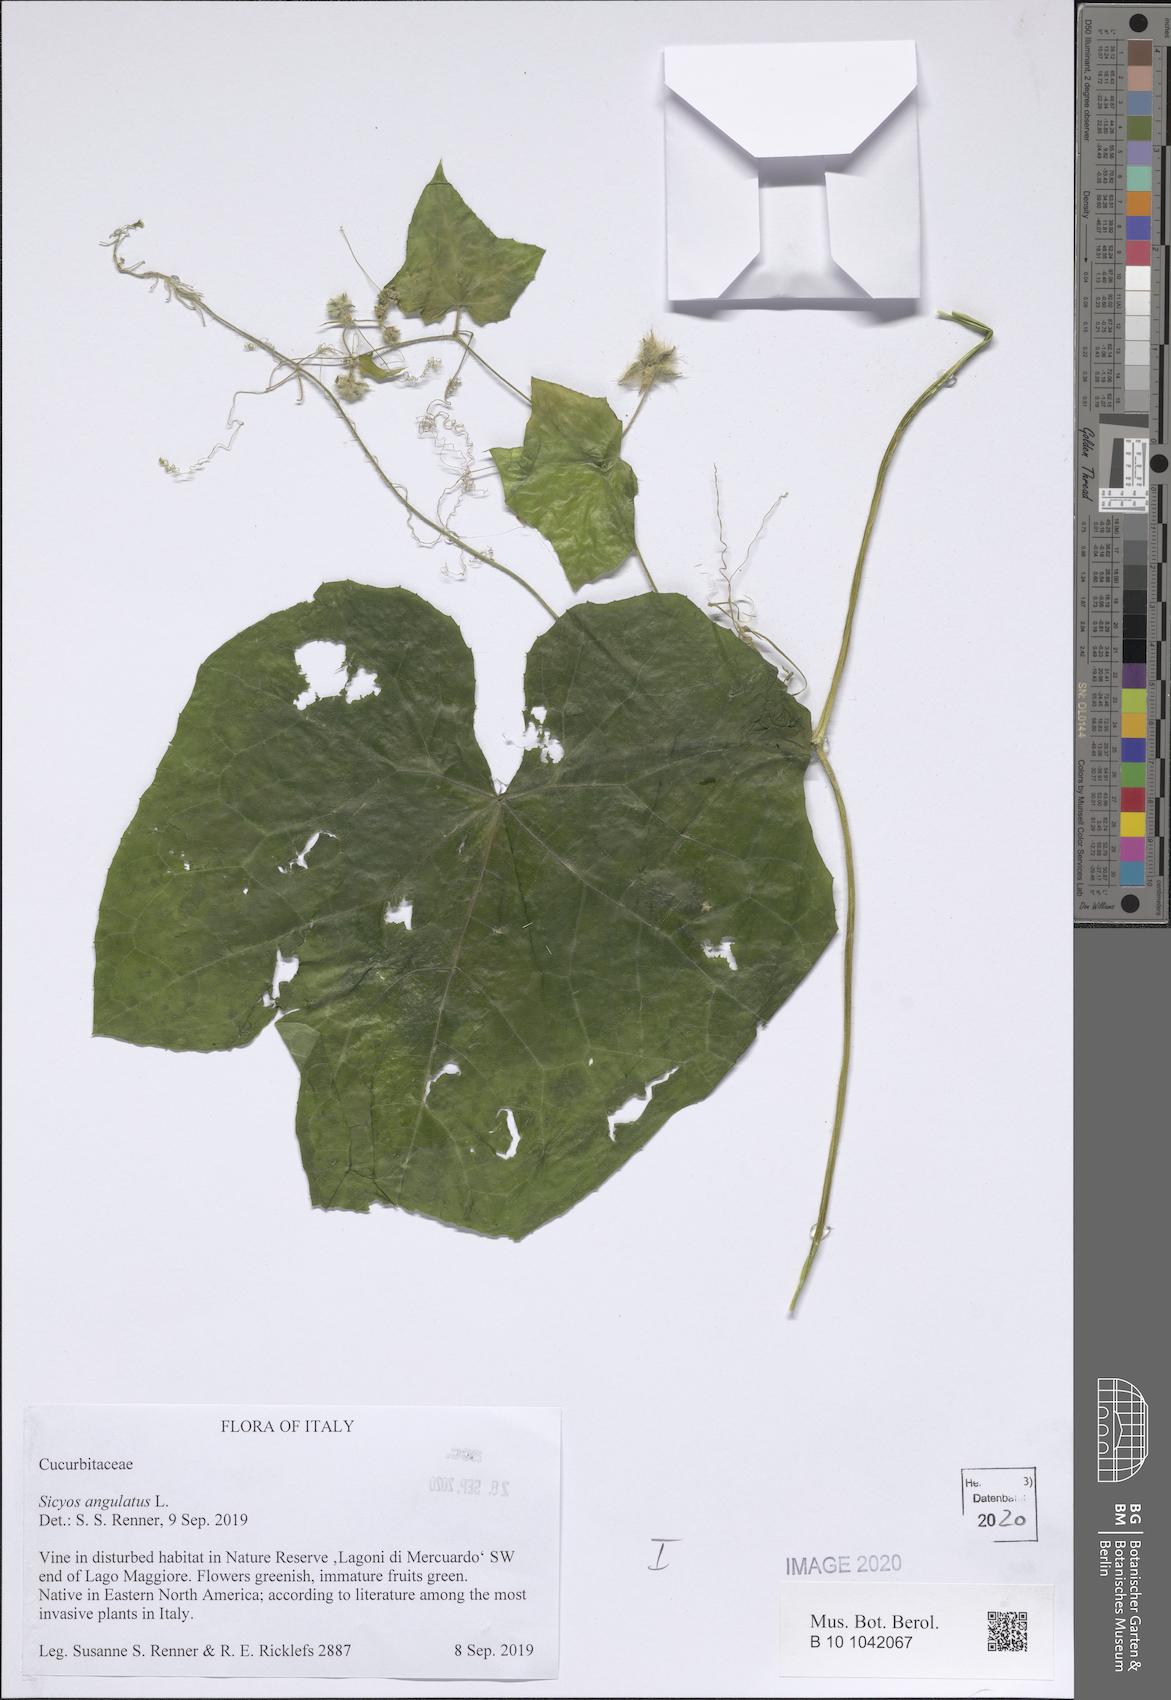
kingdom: Plantae
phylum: Tracheophyta
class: Magnoliopsida
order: Cucurbitales
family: Cucurbitaceae
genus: Sicyos
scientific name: Sicyos angulatus
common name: Angled burr cucumber
